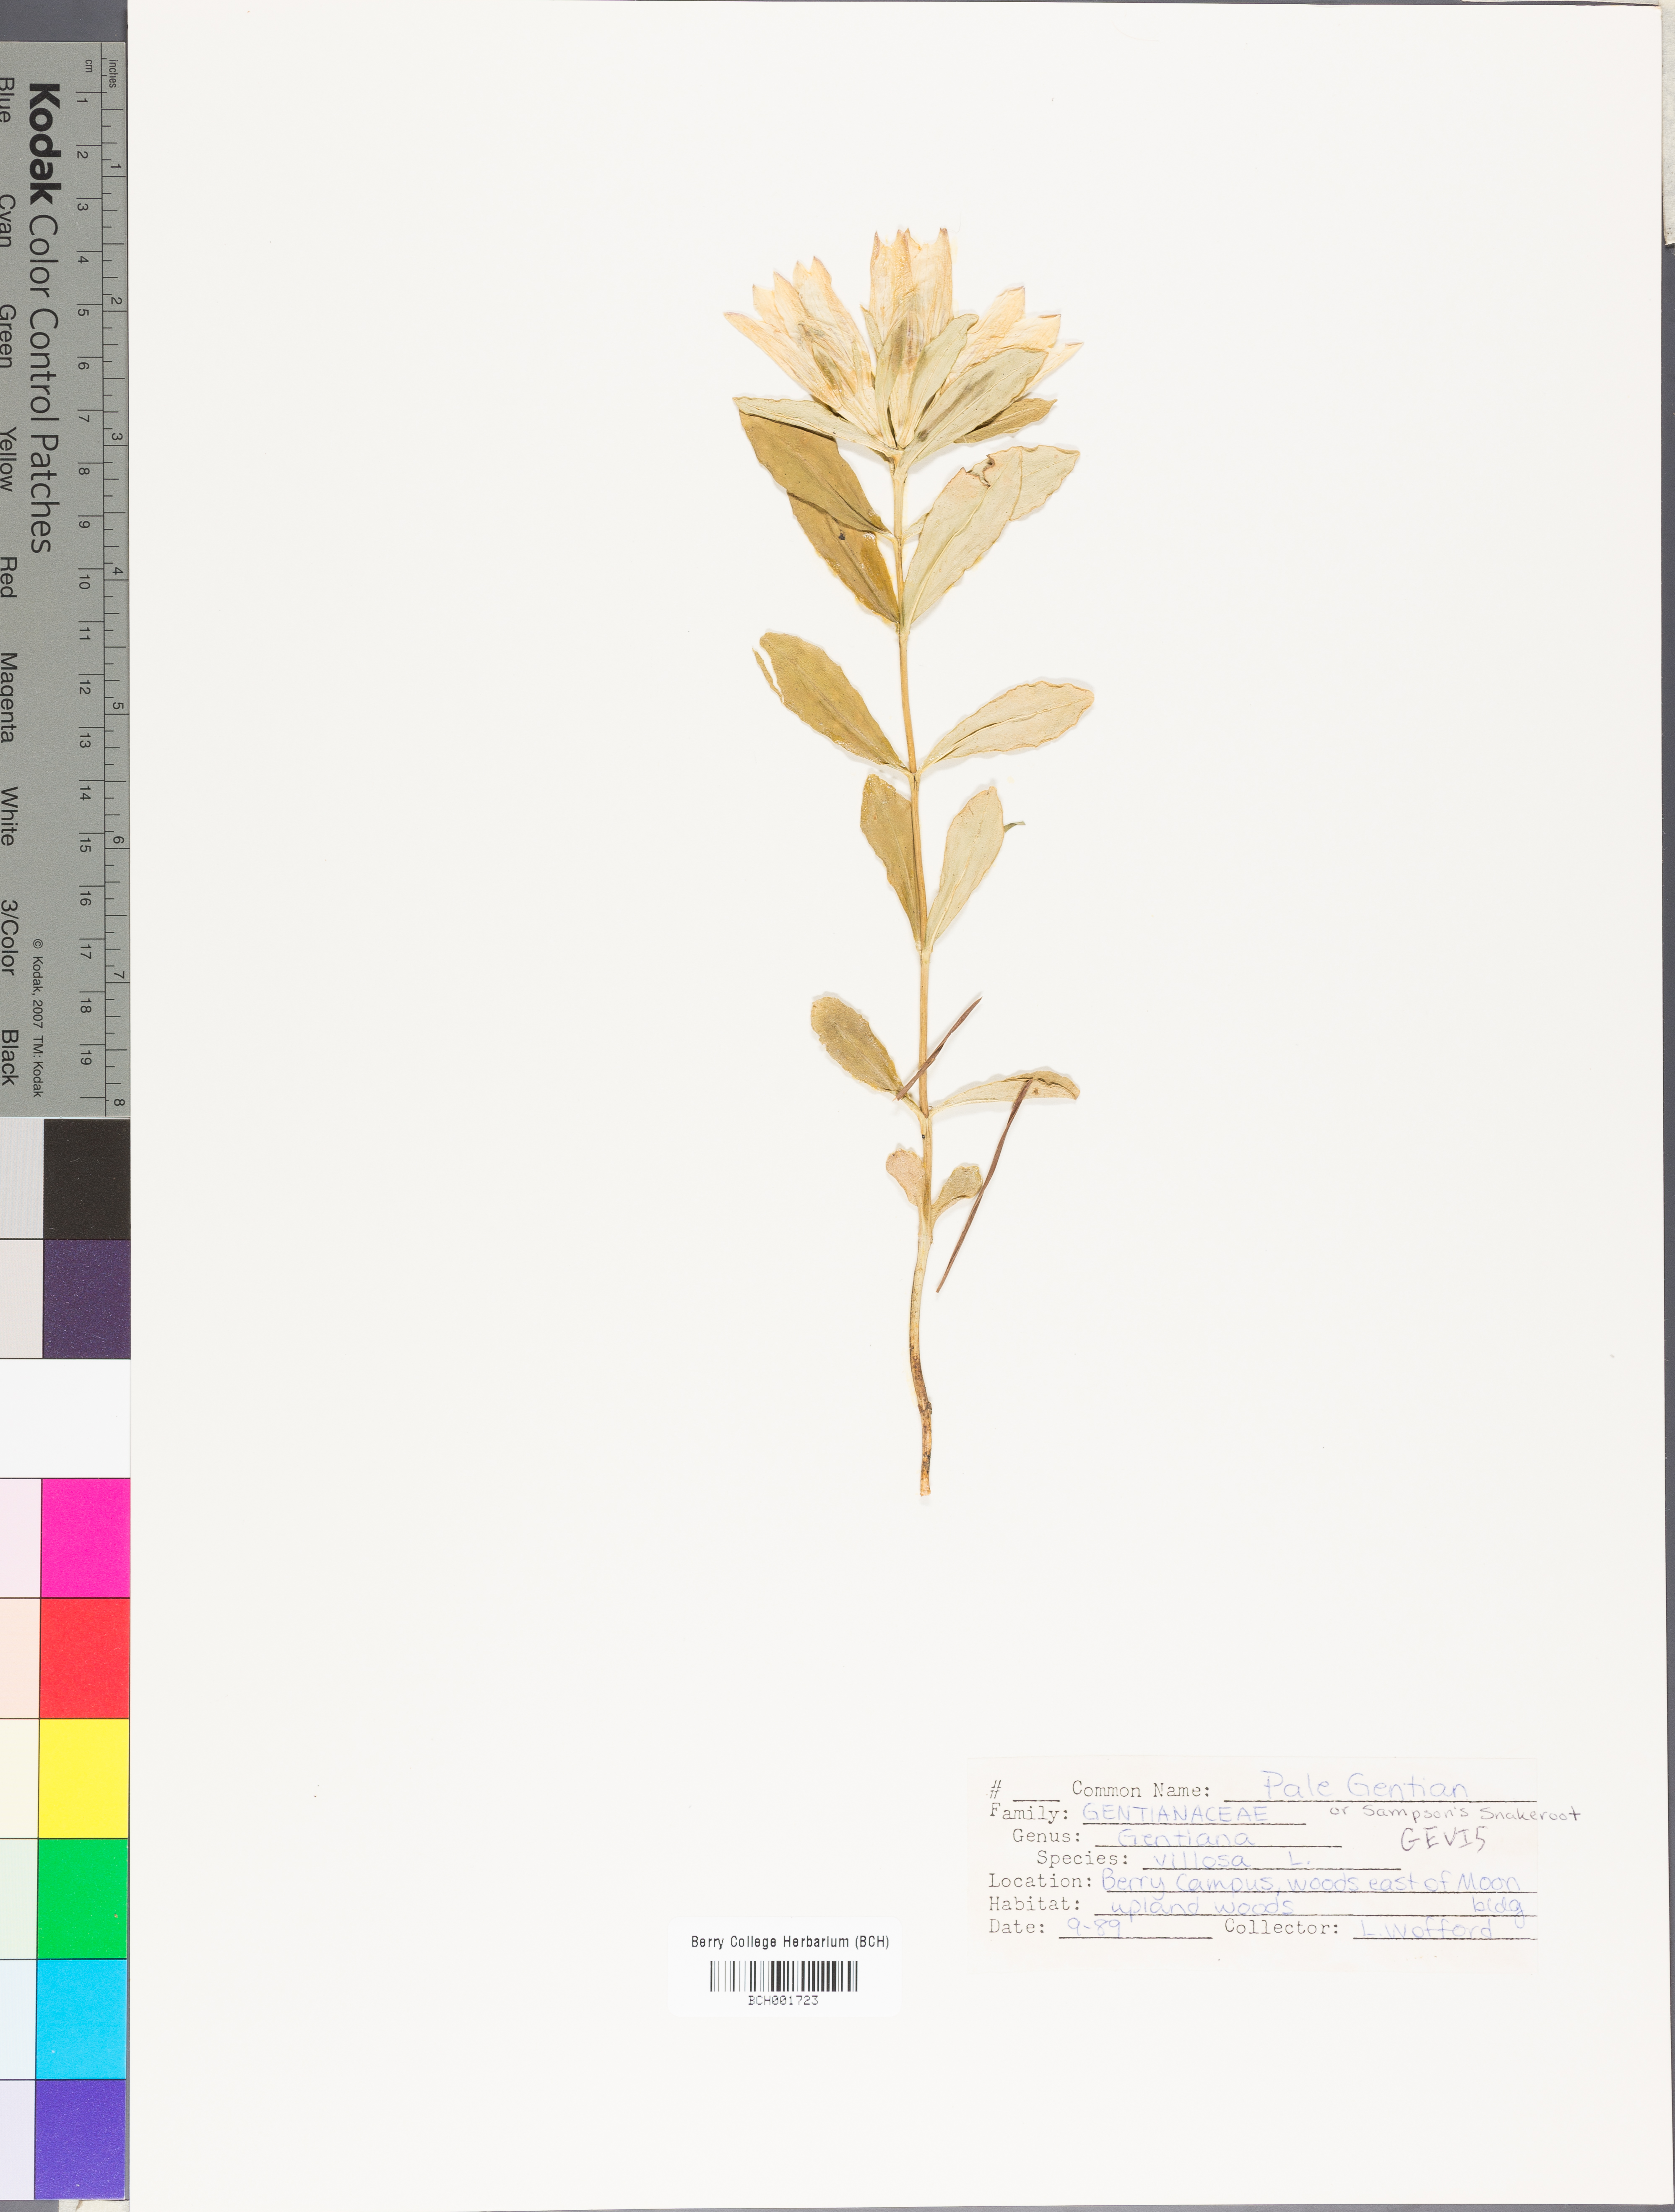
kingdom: Plantae
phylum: Tracheophyta
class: Magnoliopsida
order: Gentianales
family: Gentianaceae
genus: Gentiana
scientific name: Gentiana villosa
